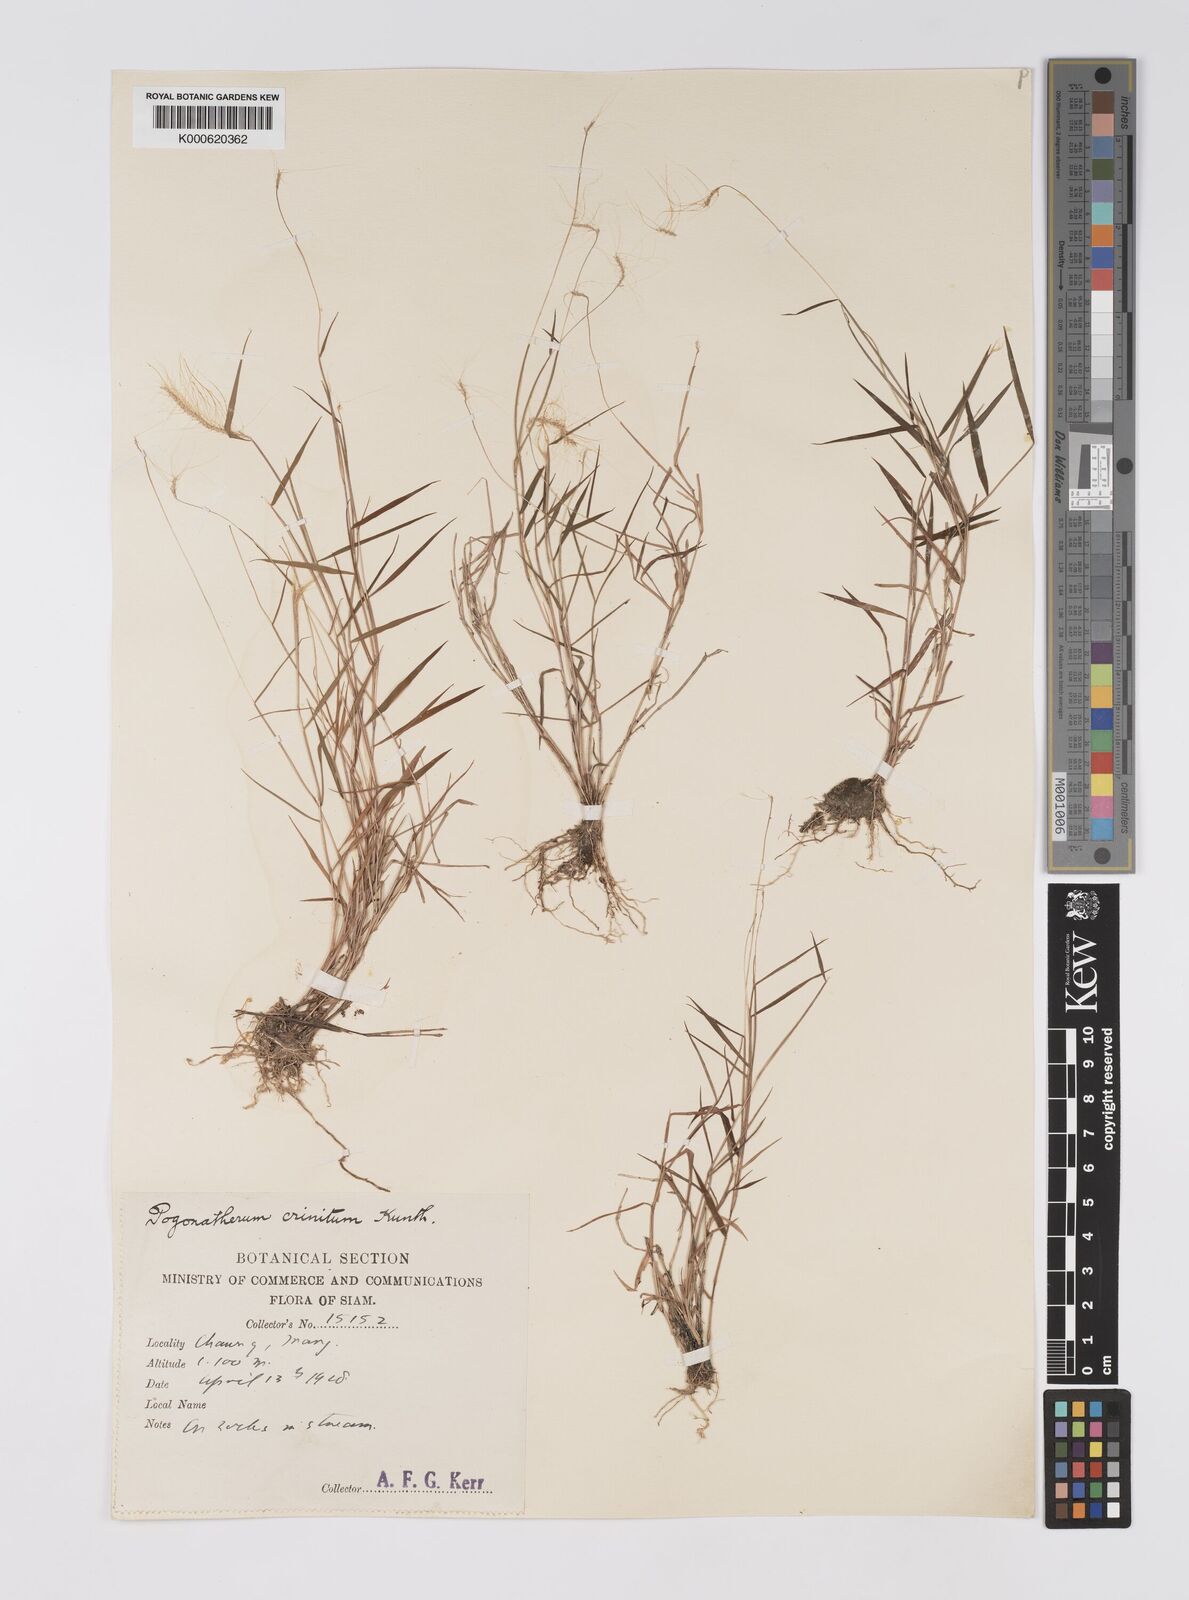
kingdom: Plantae
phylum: Tracheophyta
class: Liliopsida
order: Poales
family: Poaceae
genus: Pogonatherum
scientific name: Pogonatherum crinitum
